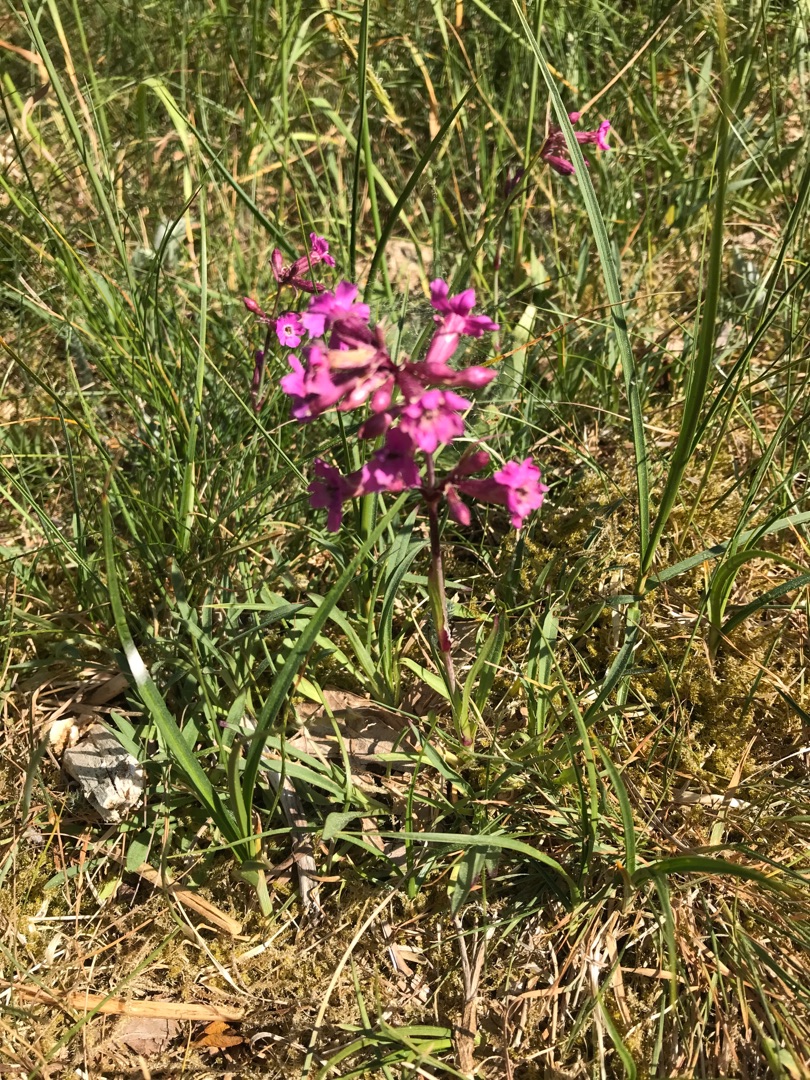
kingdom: Plantae
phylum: Tracheophyta
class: Magnoliopsida
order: Caryophyllales
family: Caryophyllaceae
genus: Viscaria
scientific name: Viscaria vulgaris
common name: Tjærenellike
